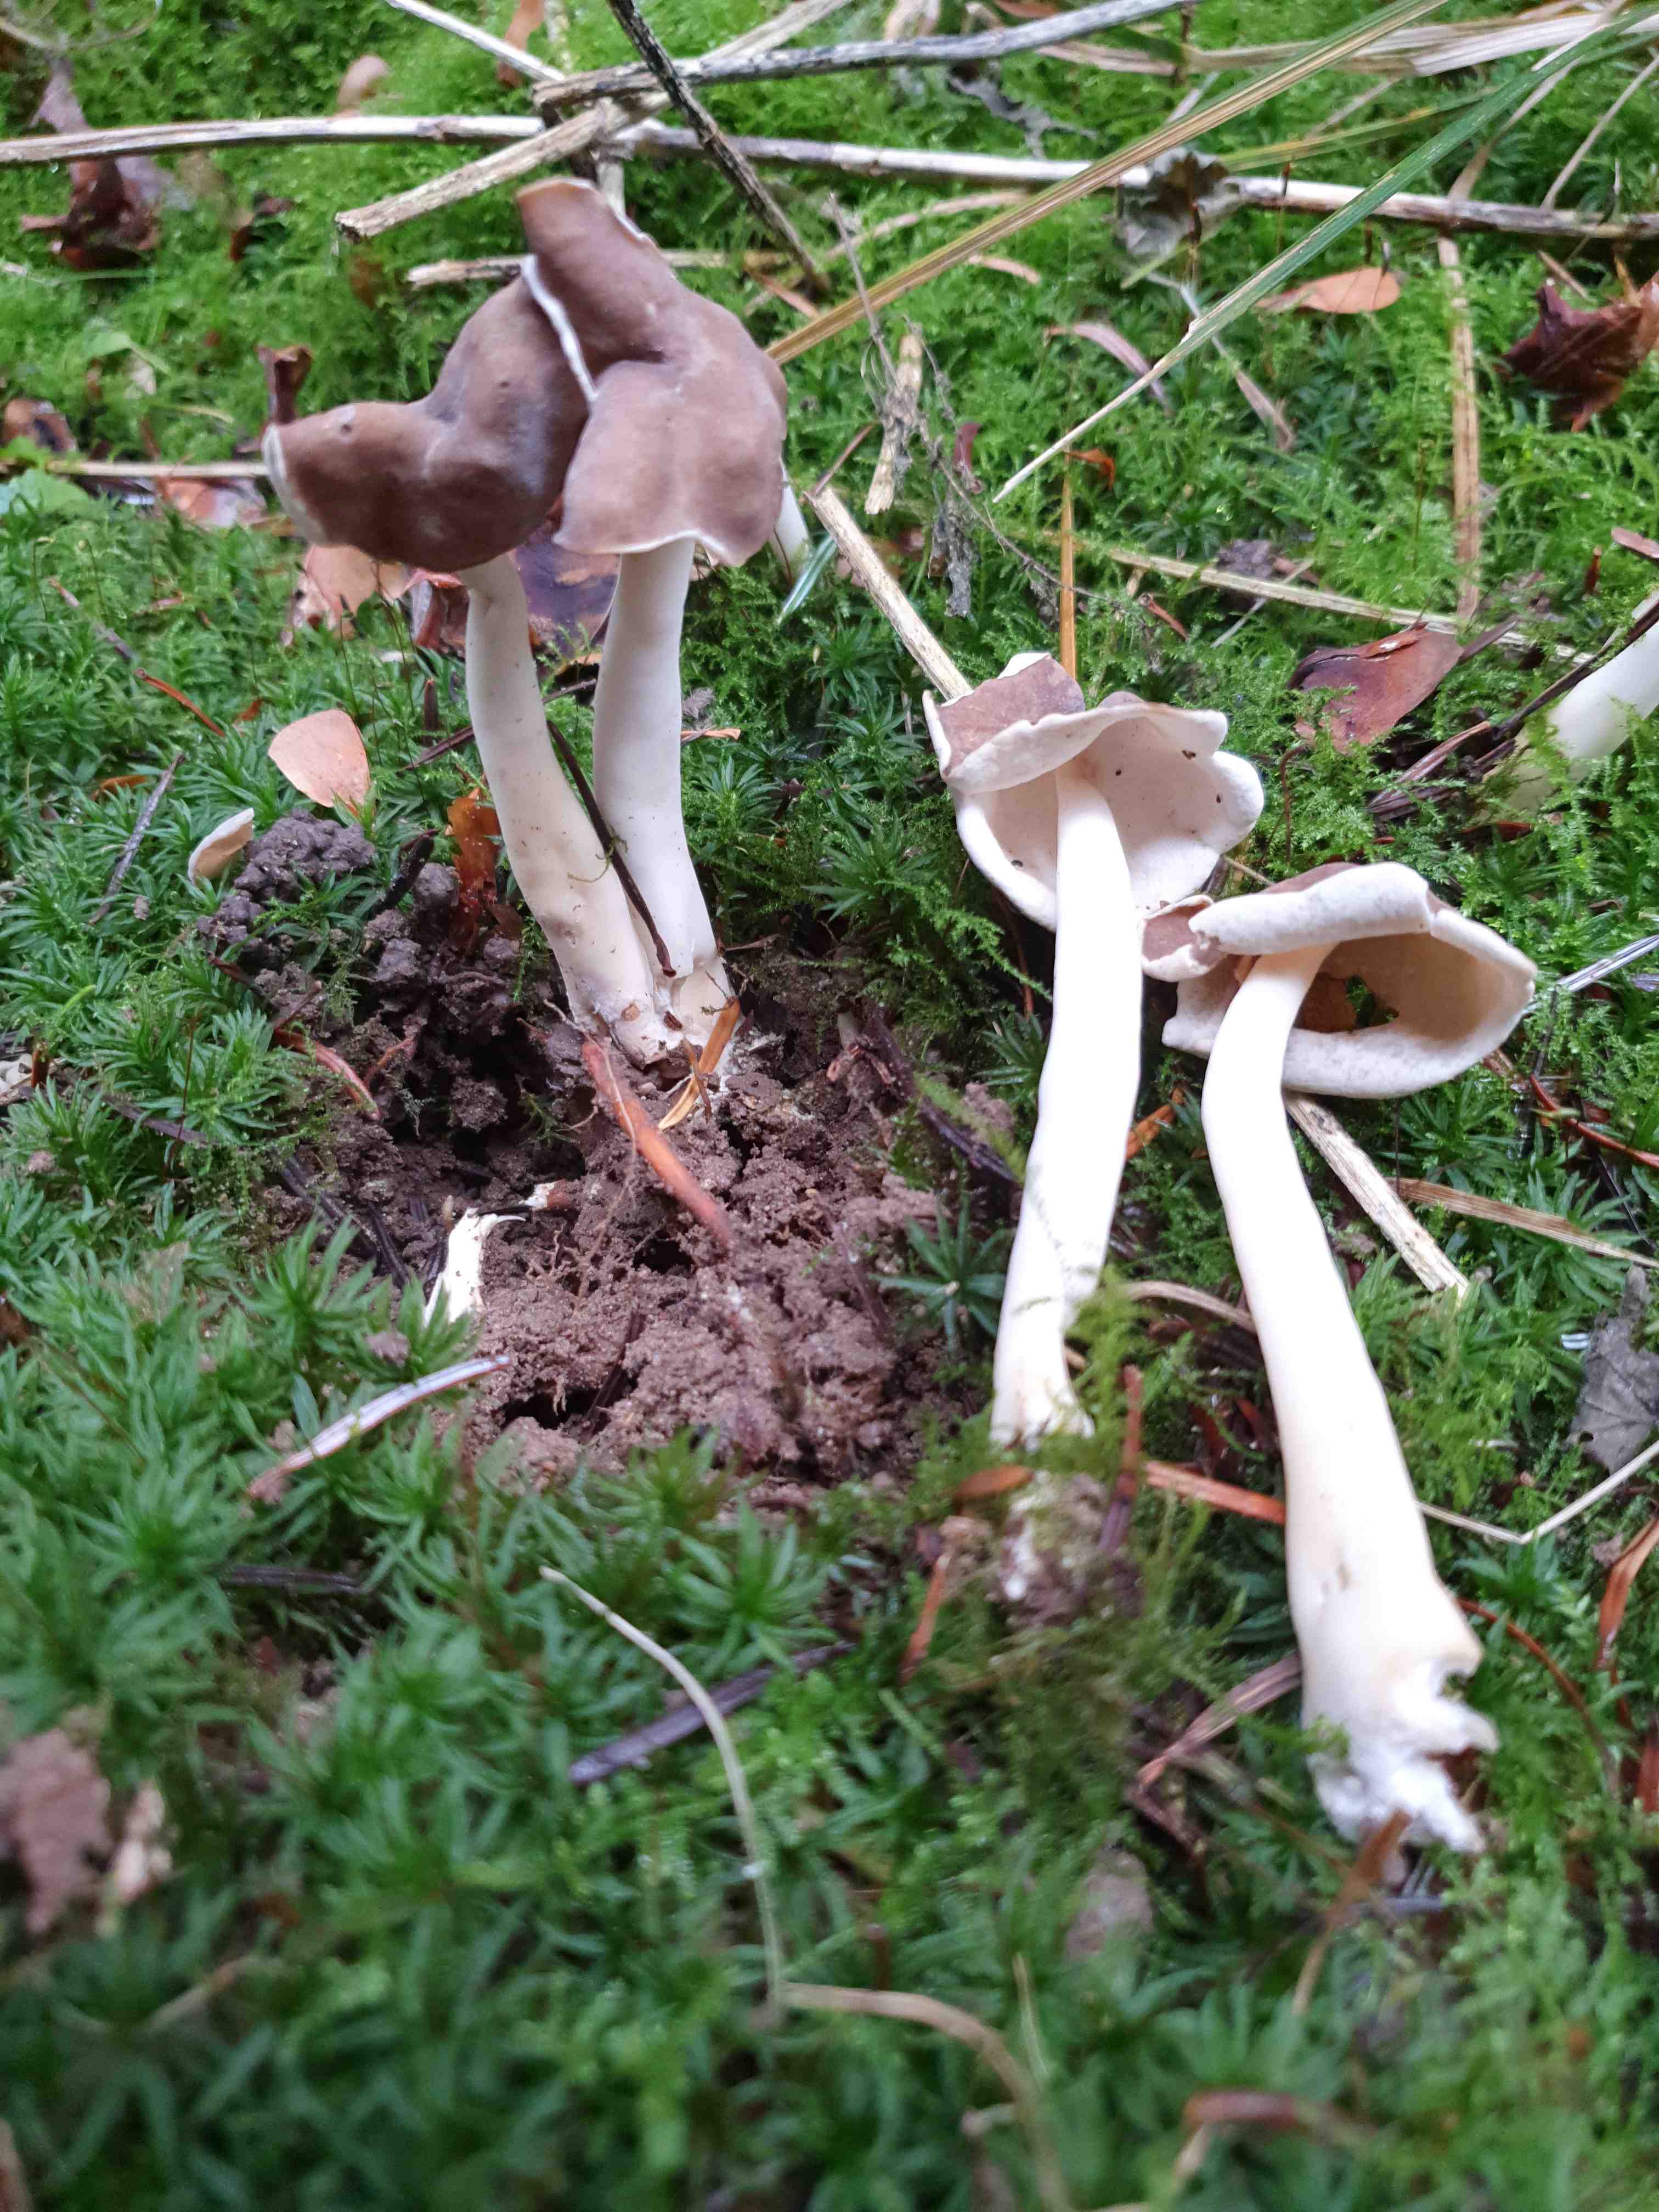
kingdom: Fungi
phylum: Ascomycota
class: Pezizomycetes
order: Pezizales
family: Helvellaceae
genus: Helvella
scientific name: Helvella elastica
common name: elastik-foldhat
